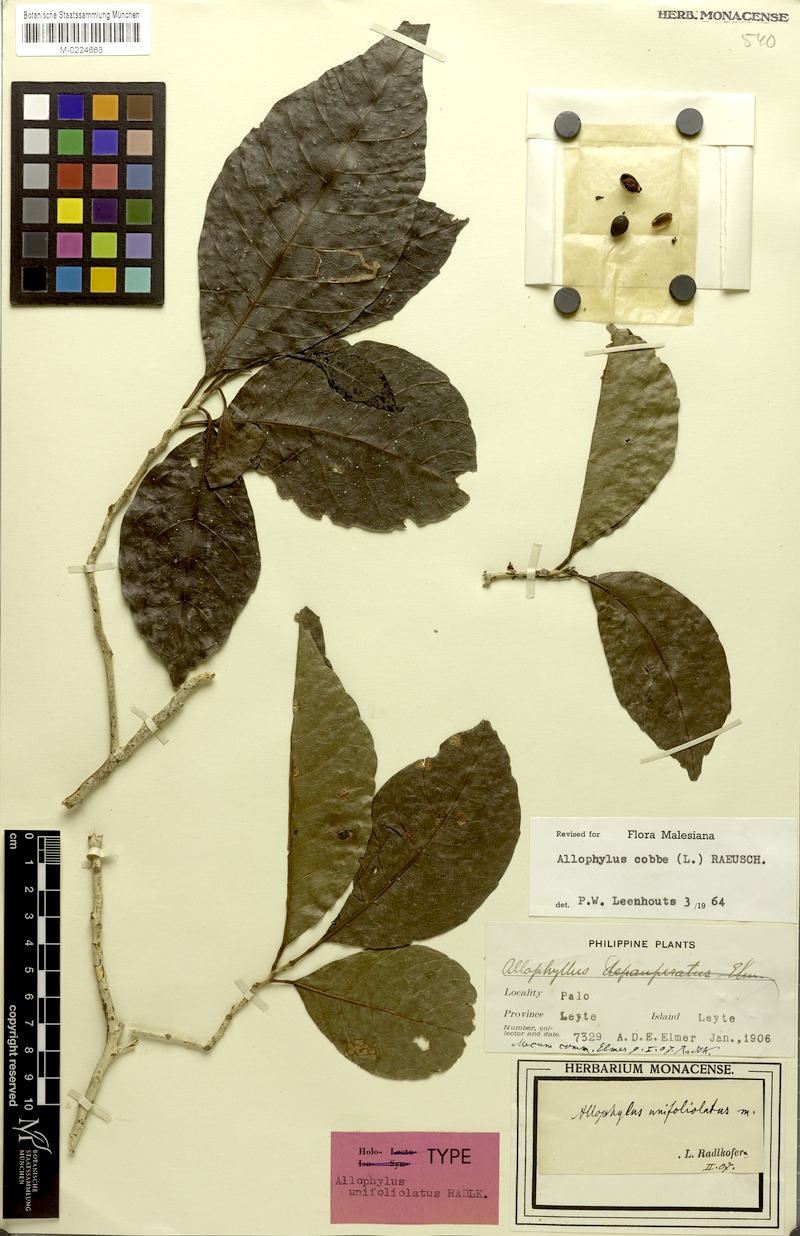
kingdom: Plantae
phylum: Tracheophyta
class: Magnoliopsida
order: Sapindales
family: Sapindaceae
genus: Allophylus
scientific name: Allophylus unifoliolatus
